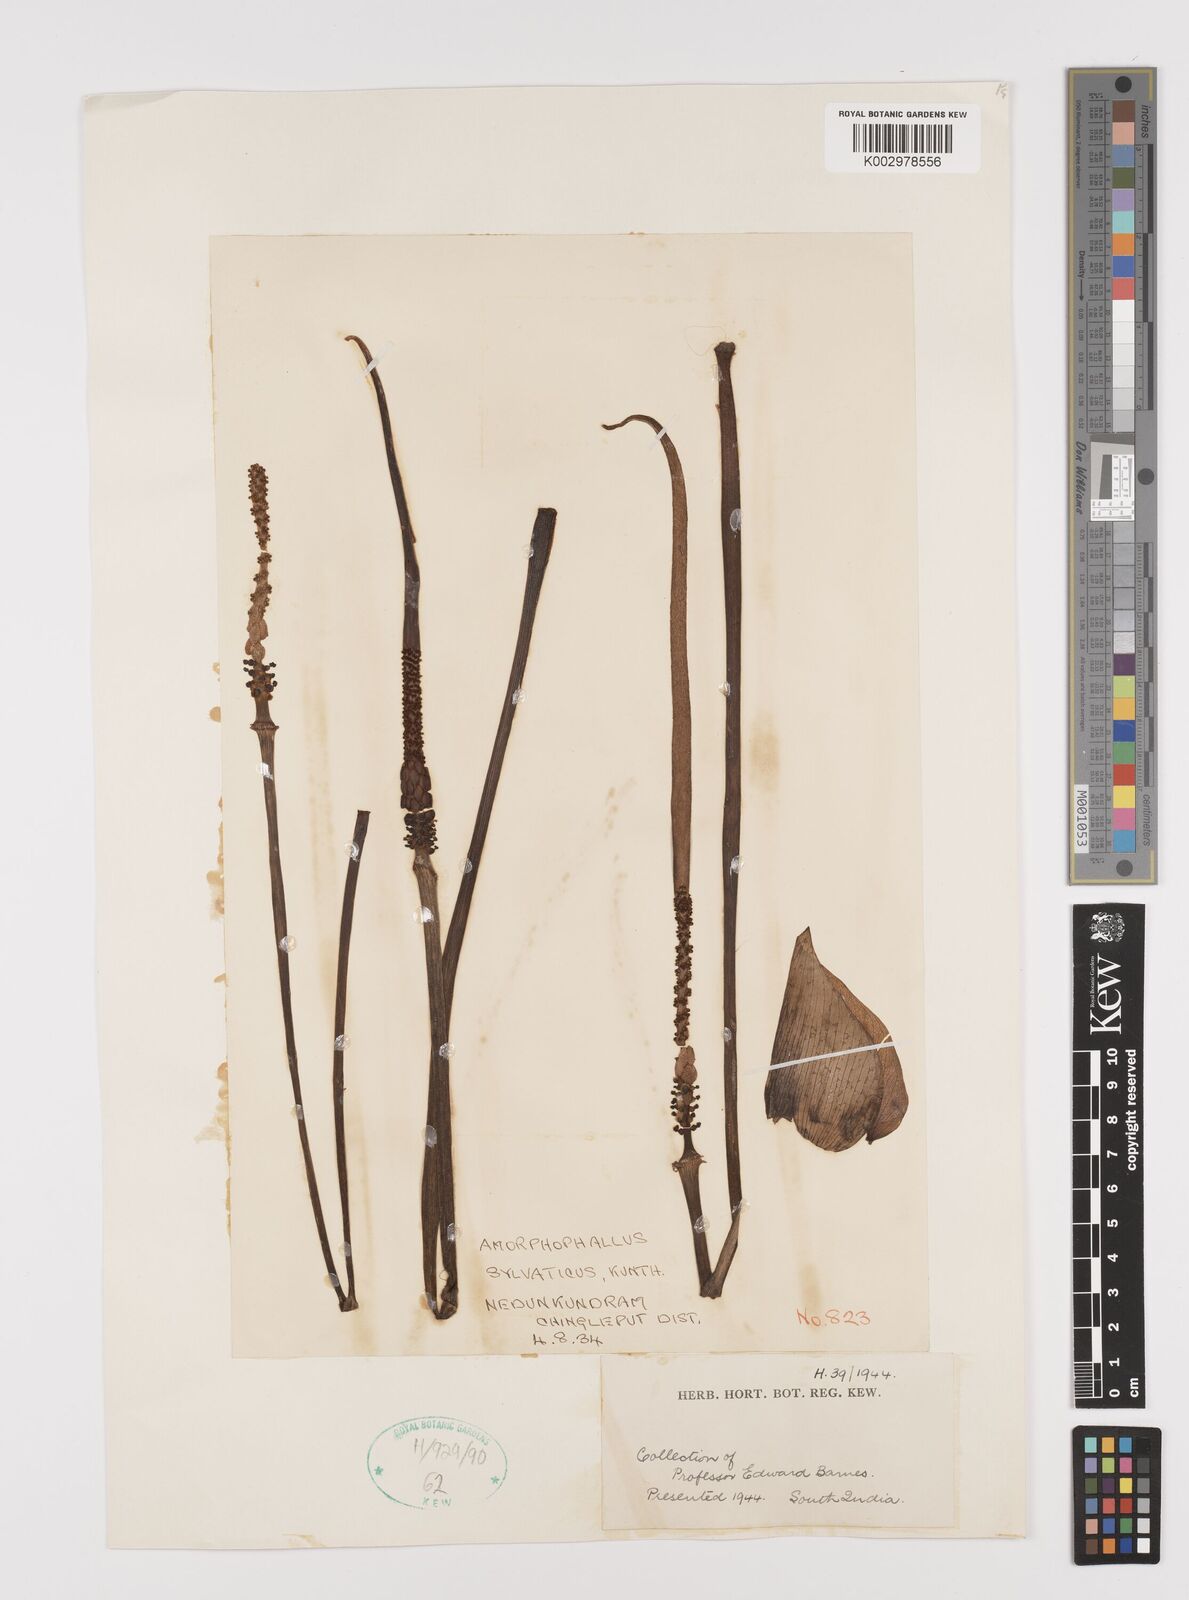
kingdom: Plantae
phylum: Tracheophyta
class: Liliopsida
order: Alismatales
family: Araceae
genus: Amorphophallus
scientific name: Amorphophallus sylvaticus
